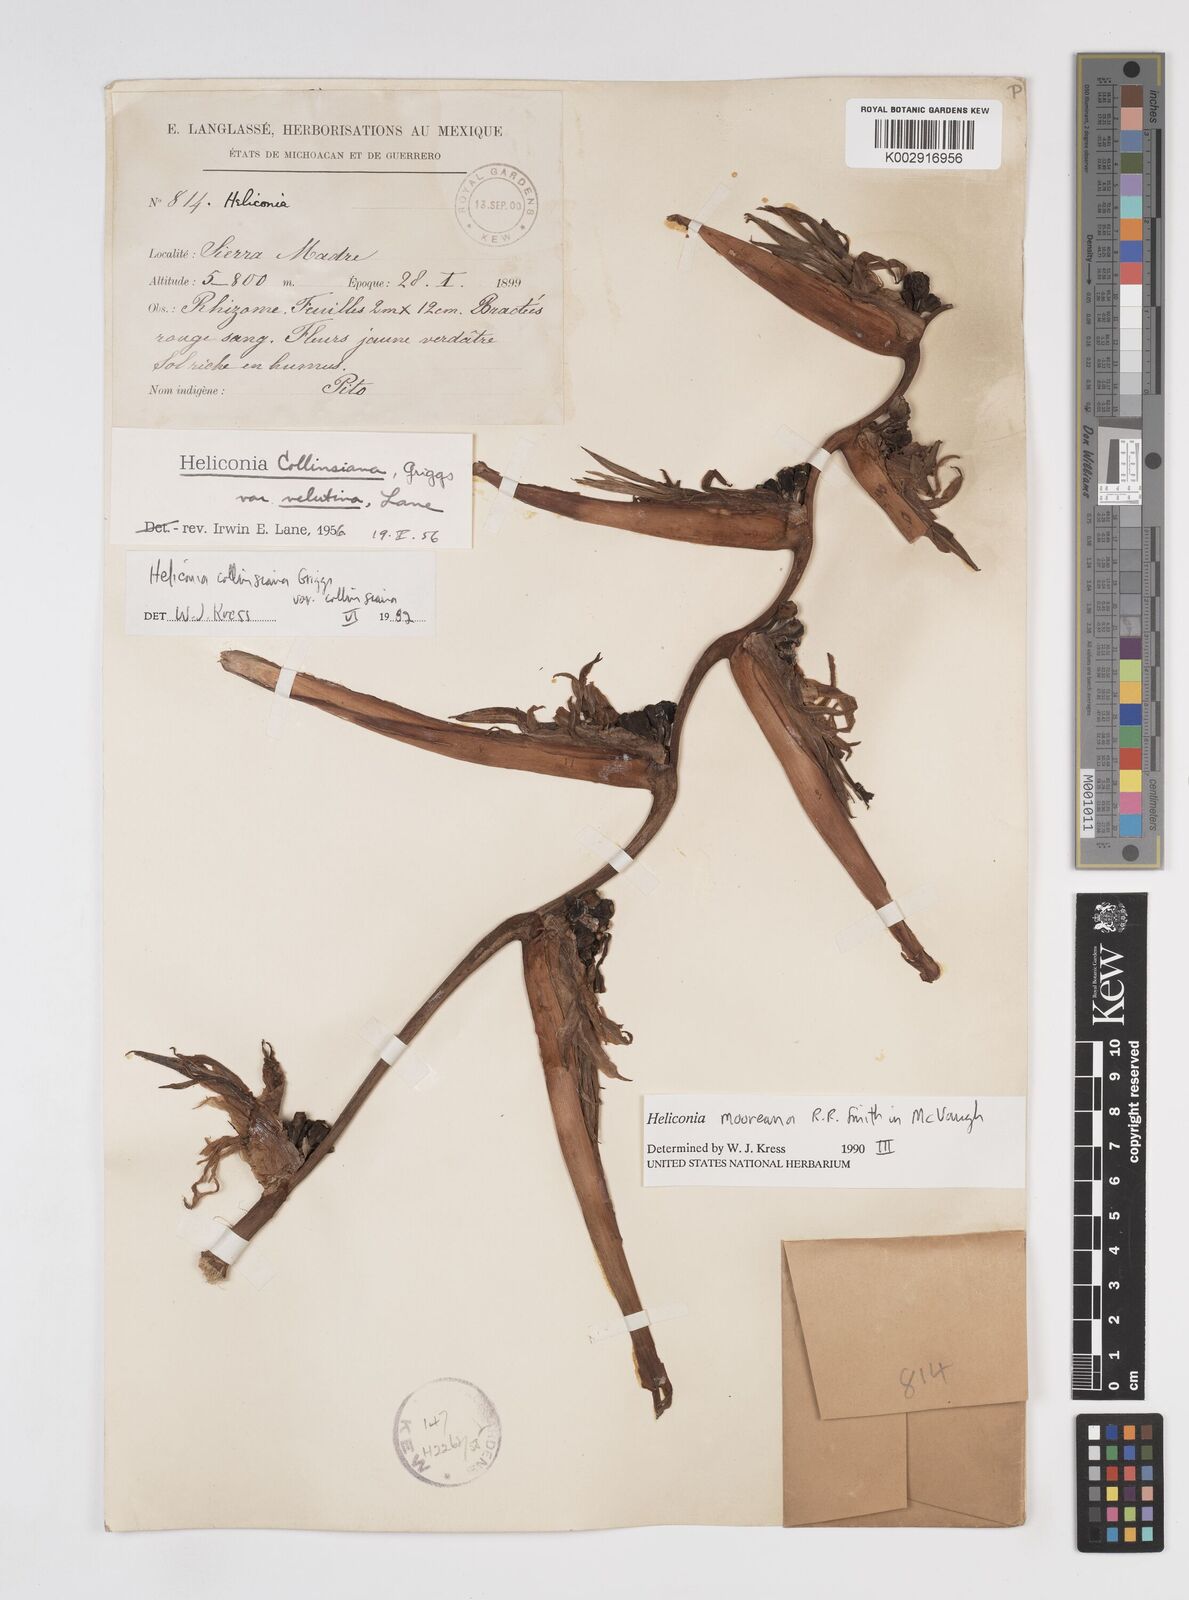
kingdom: Plantae
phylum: Tracheophyta
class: Liliopsida
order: Zingiberales
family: Heliconiaceae
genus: Heliconia
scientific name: Heliconia mooreana
